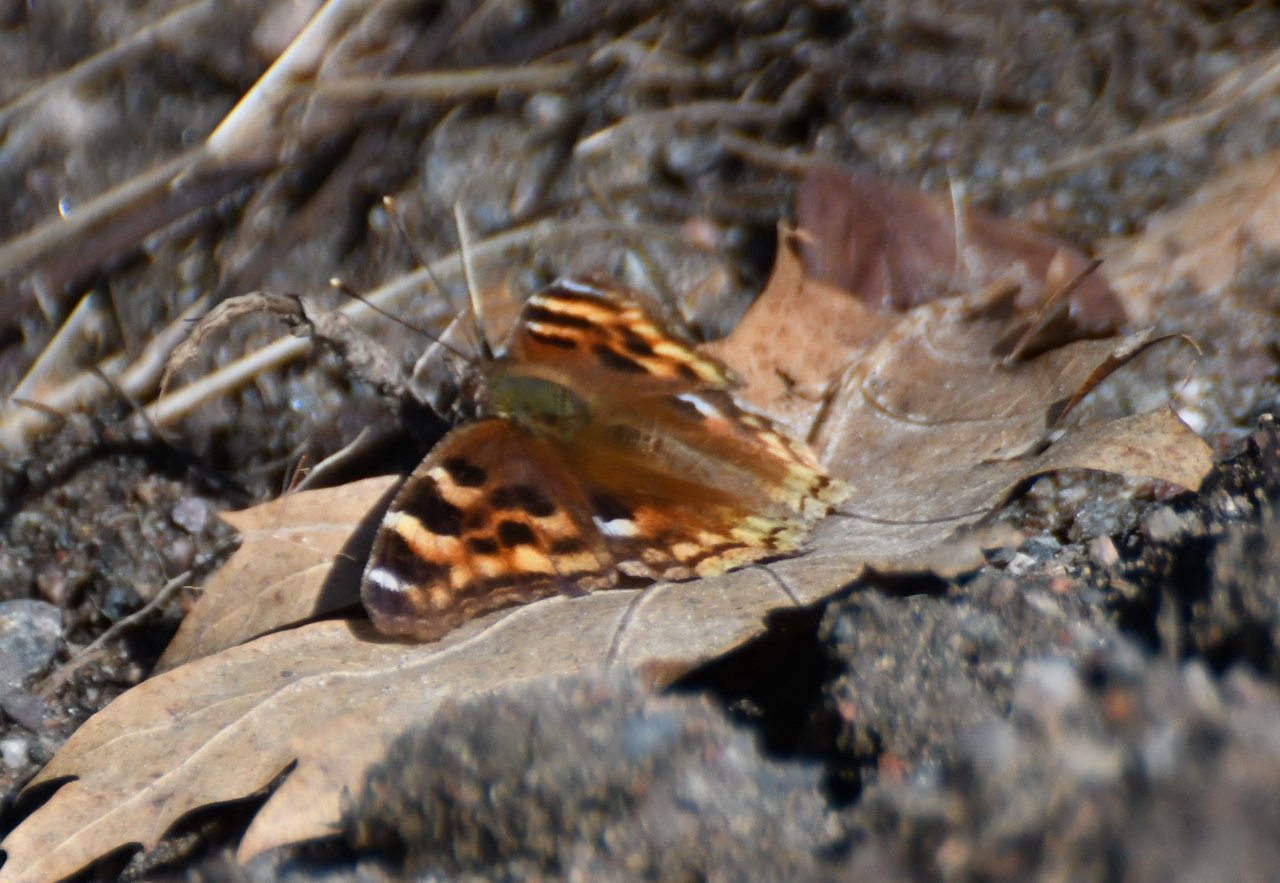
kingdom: Animalia
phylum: Arthropoda
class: Insecta
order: Lepidoptera
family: Nymphalidae
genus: Polygonia
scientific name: Polygonia vaualbum
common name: Compton Tortoiseshell
